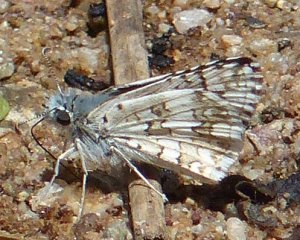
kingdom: Animalia
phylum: Arthropoda
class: Insecta
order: Lepidoptera
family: Hesperiidae
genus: Pyrgus
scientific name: Pyrgus communis
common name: Common Checkered-Skipper
